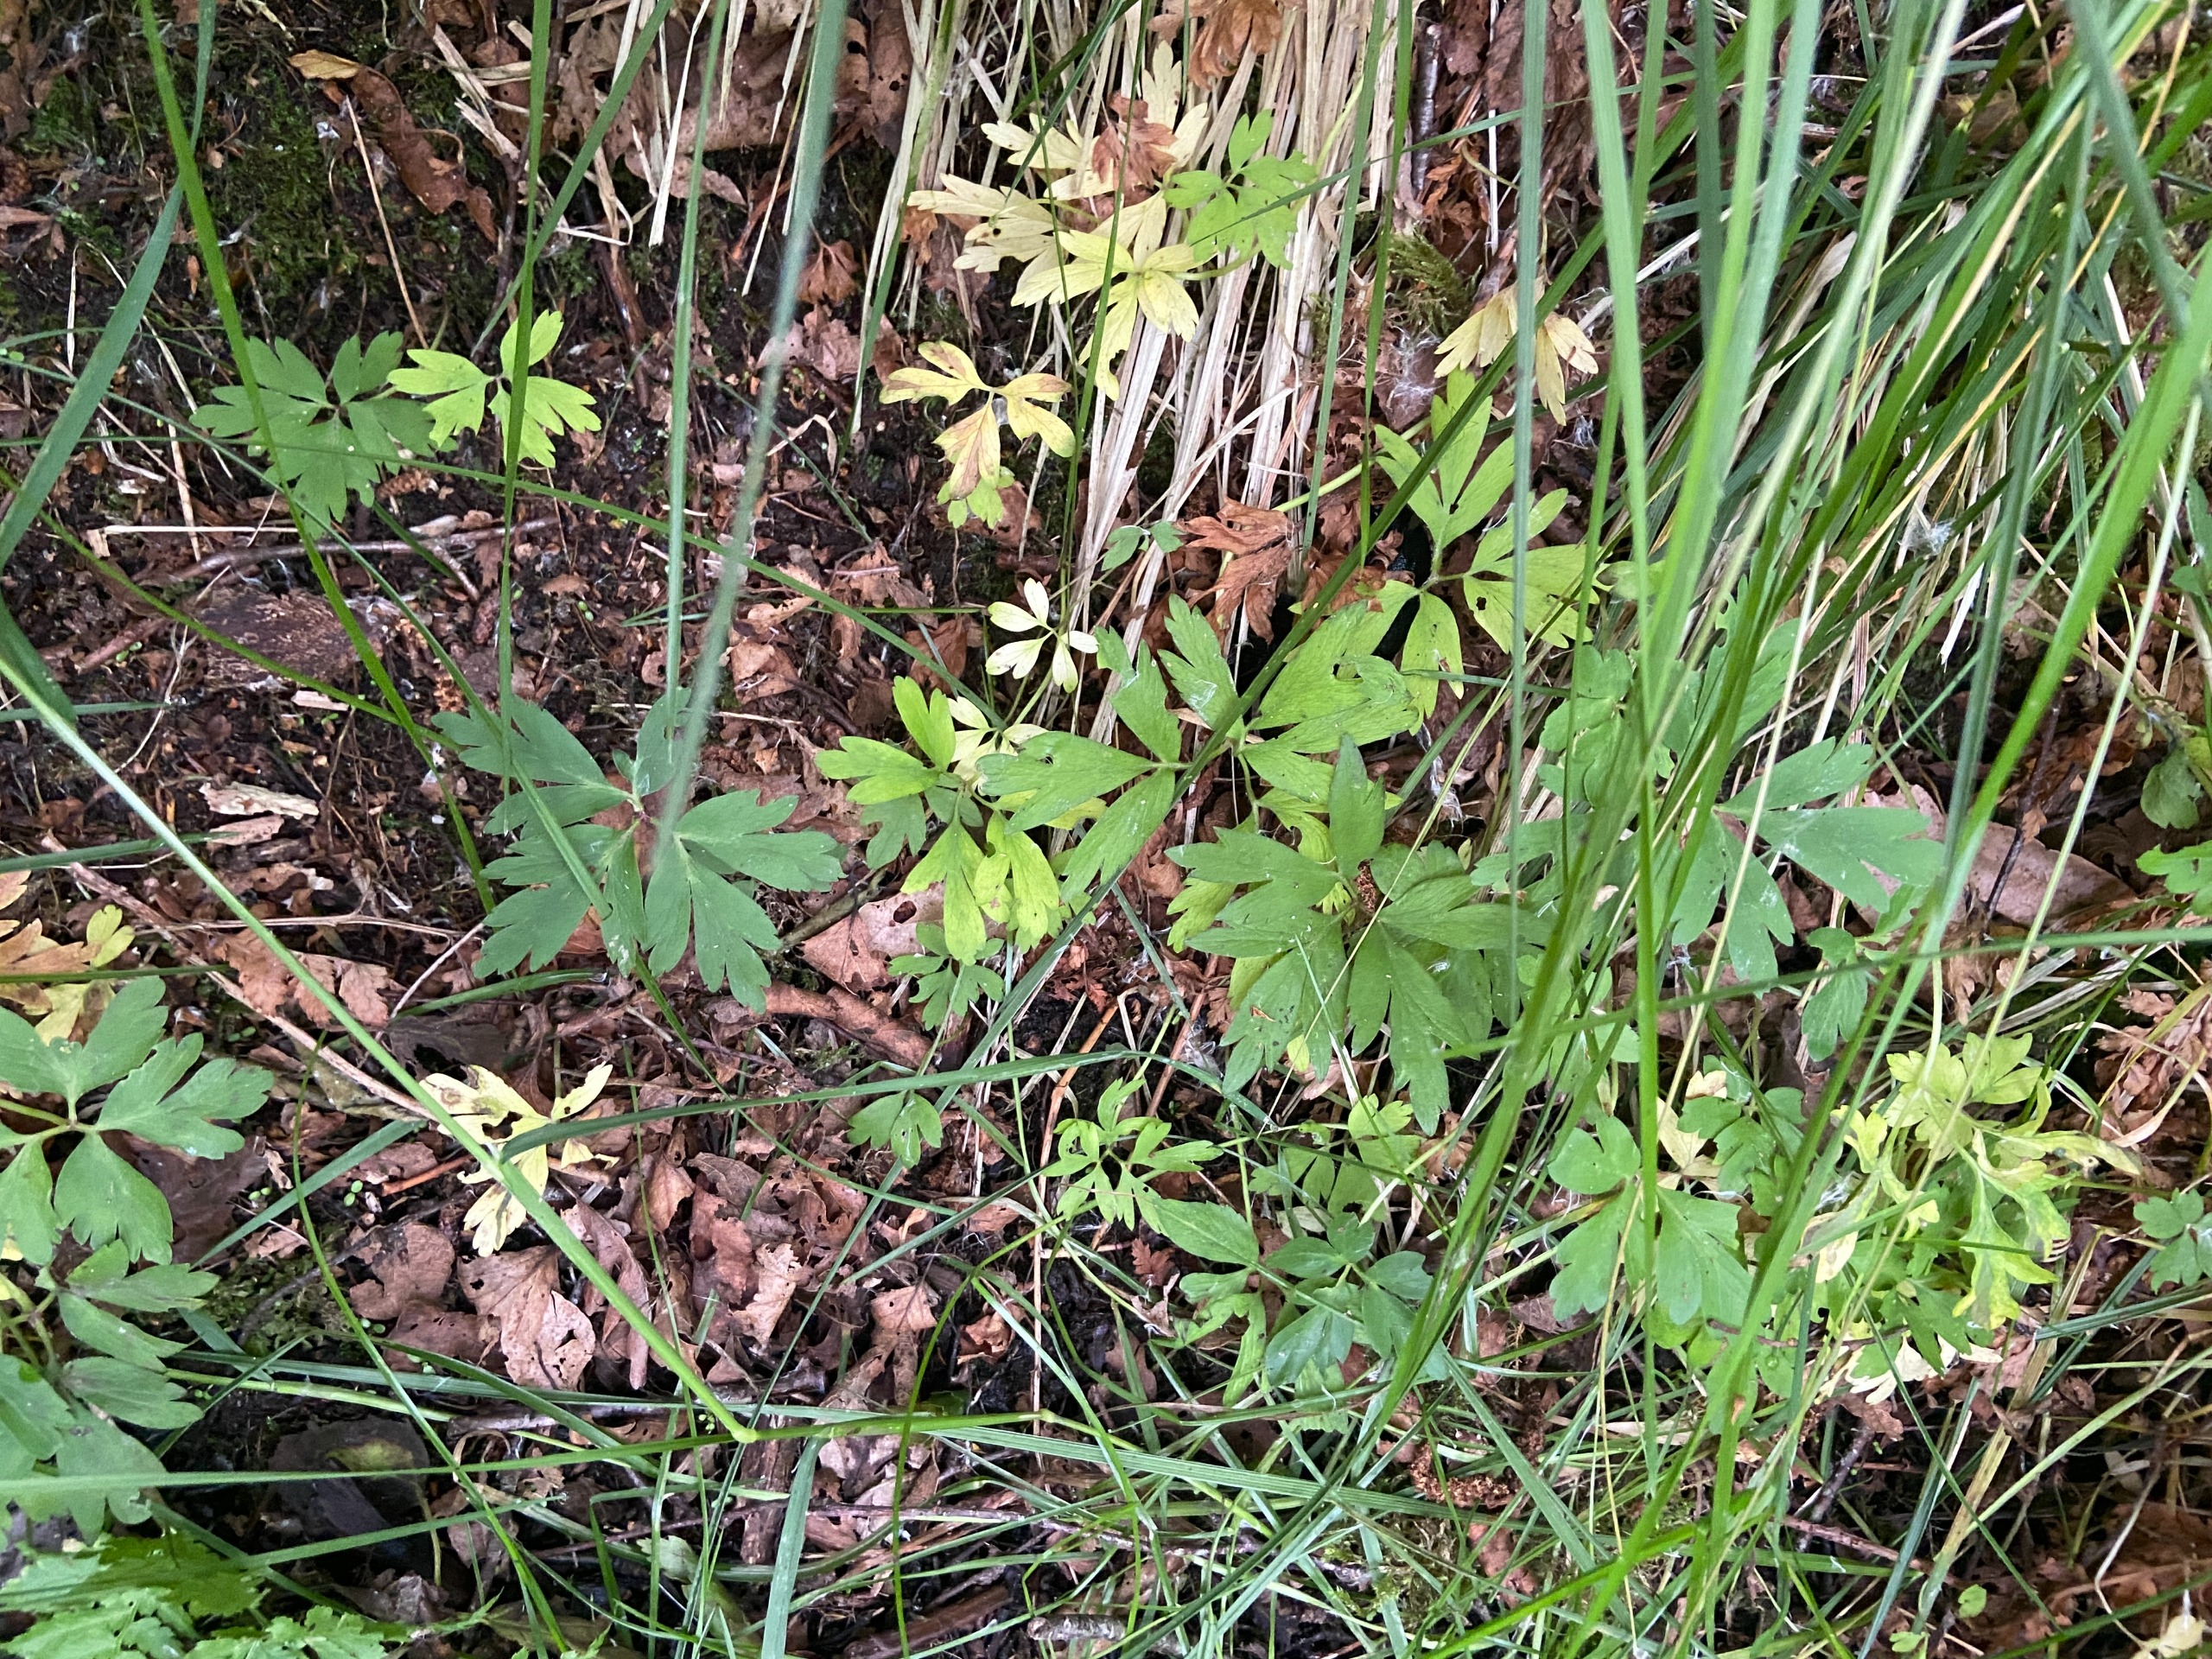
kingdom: Plantae
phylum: Tracheophyta
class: Magnoliopsida
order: Ranunculales
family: Ranunculaceae
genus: Anemone
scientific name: Anemone nemorosa
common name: Hvid anemone
